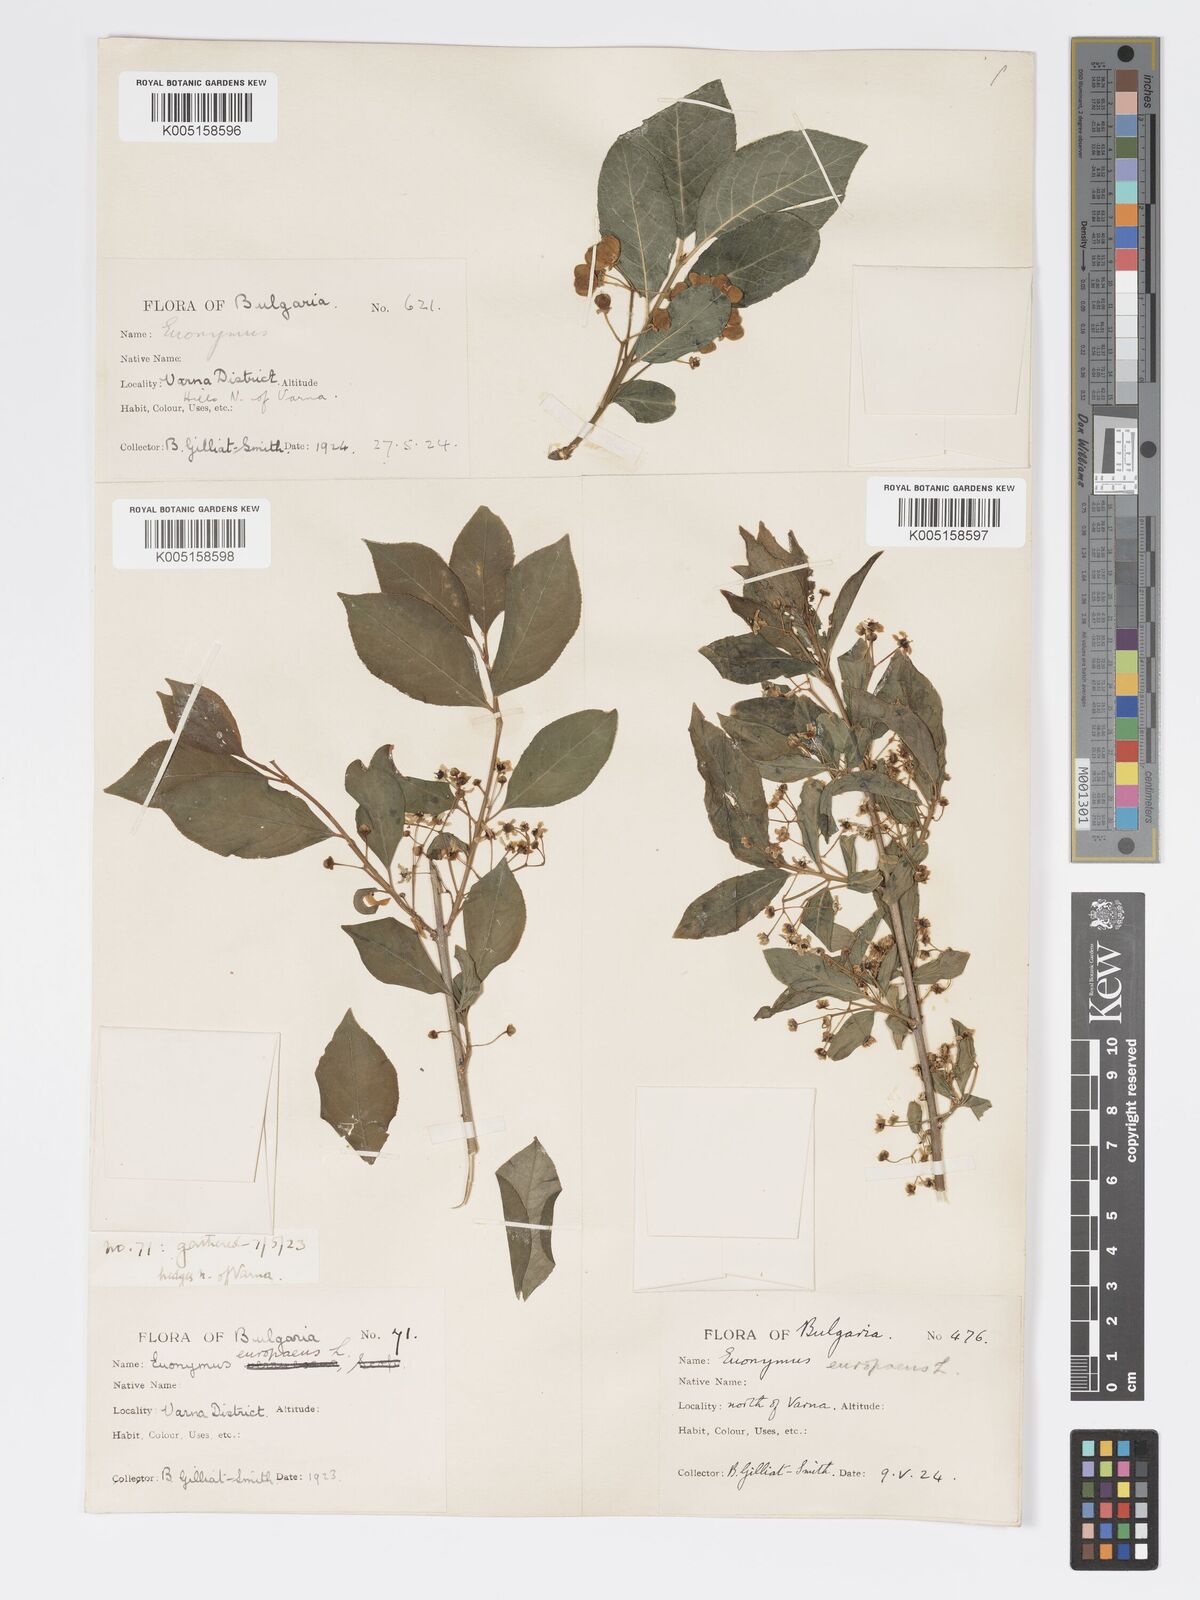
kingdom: Plantae
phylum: Tracheophyta
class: Magnoliopsida
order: Celastrales
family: Celastraceae
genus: Euonymus
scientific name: Euonymus europaeus
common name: Spindle
